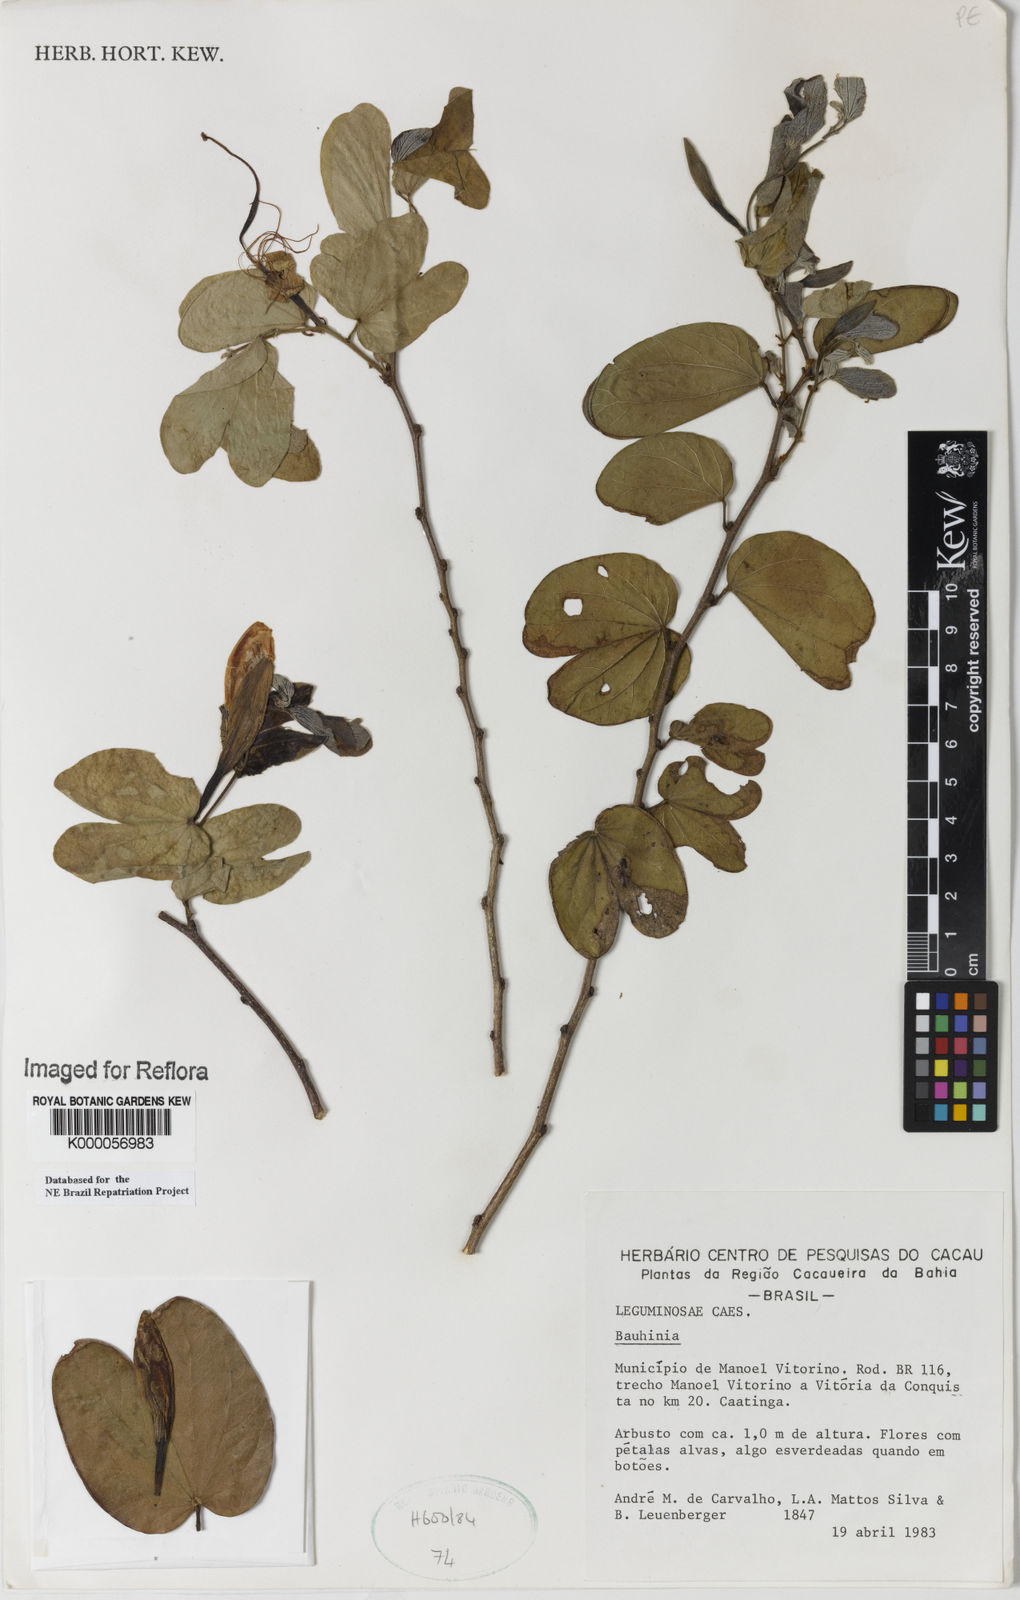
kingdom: Plantae
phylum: Tracheophyta
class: Magnoliopsida
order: Fabales
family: Fabaceae
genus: Bauhinia
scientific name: Bauhinia aculeata
